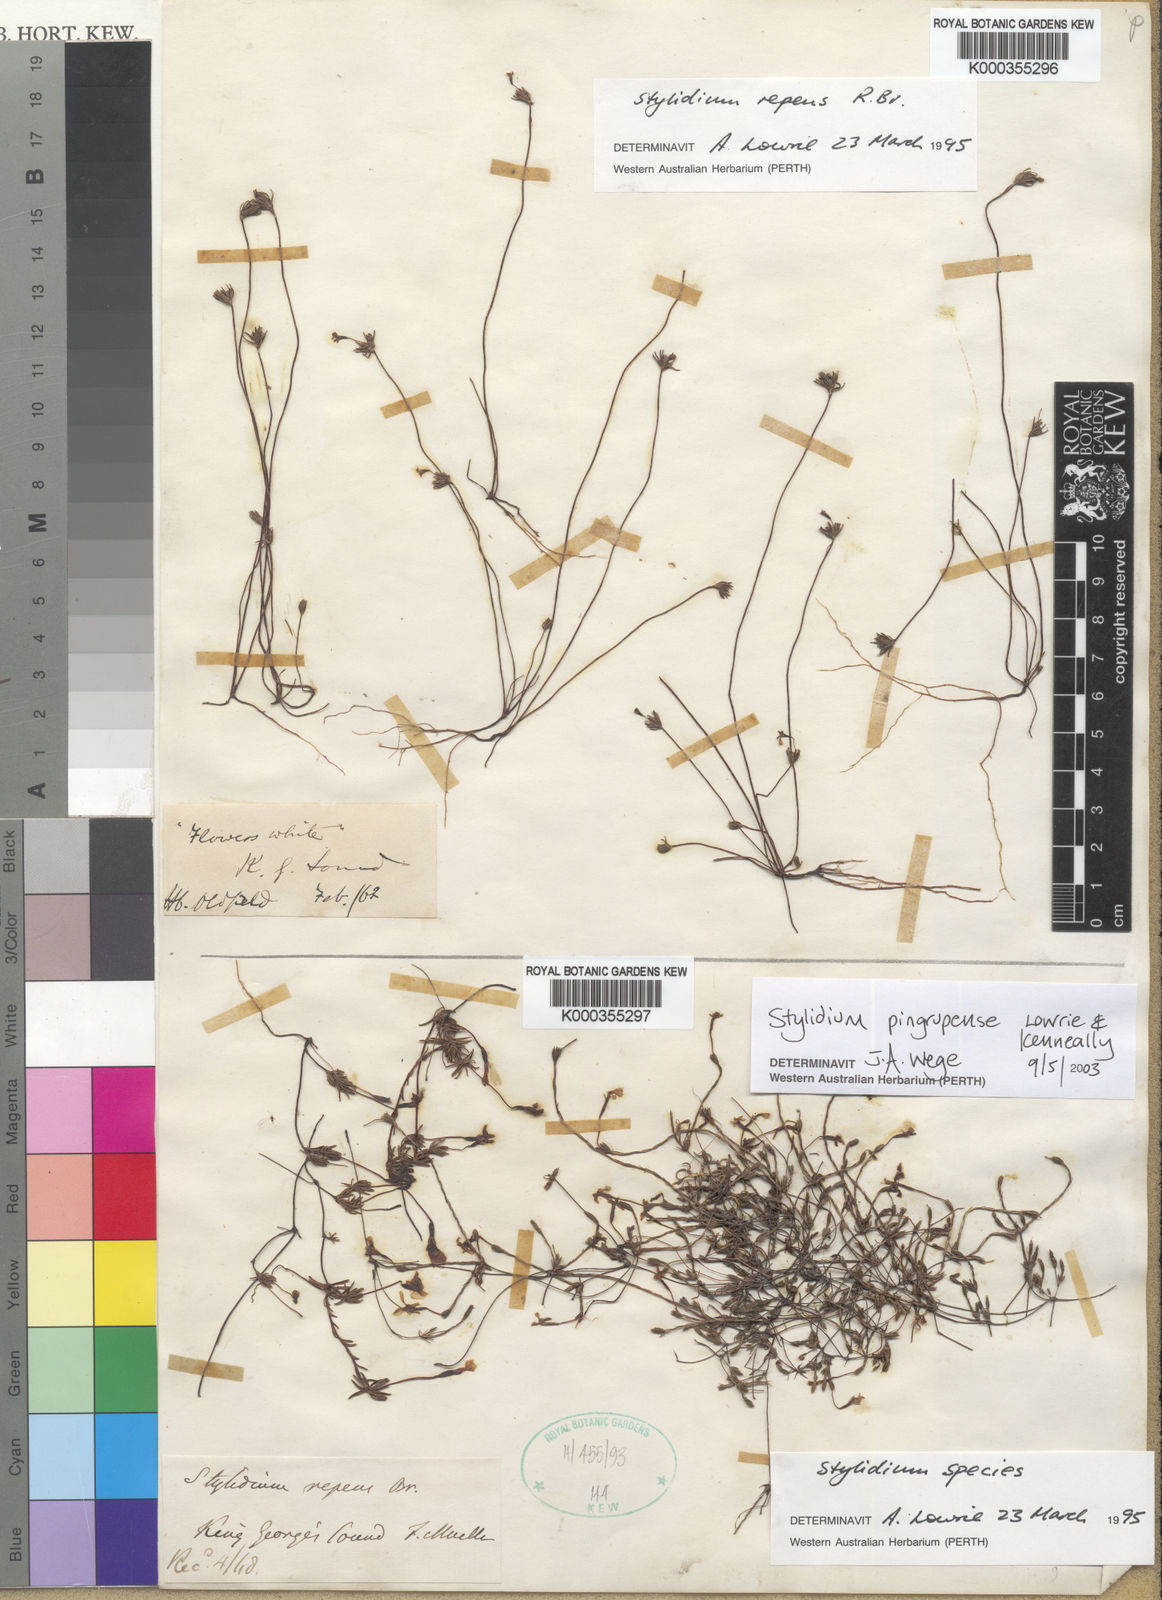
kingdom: Plantae
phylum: Tracheophyta
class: Magnoliopsida
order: Asterales
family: Stylidiaceae
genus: Stylidium
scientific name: Stylidium repens
